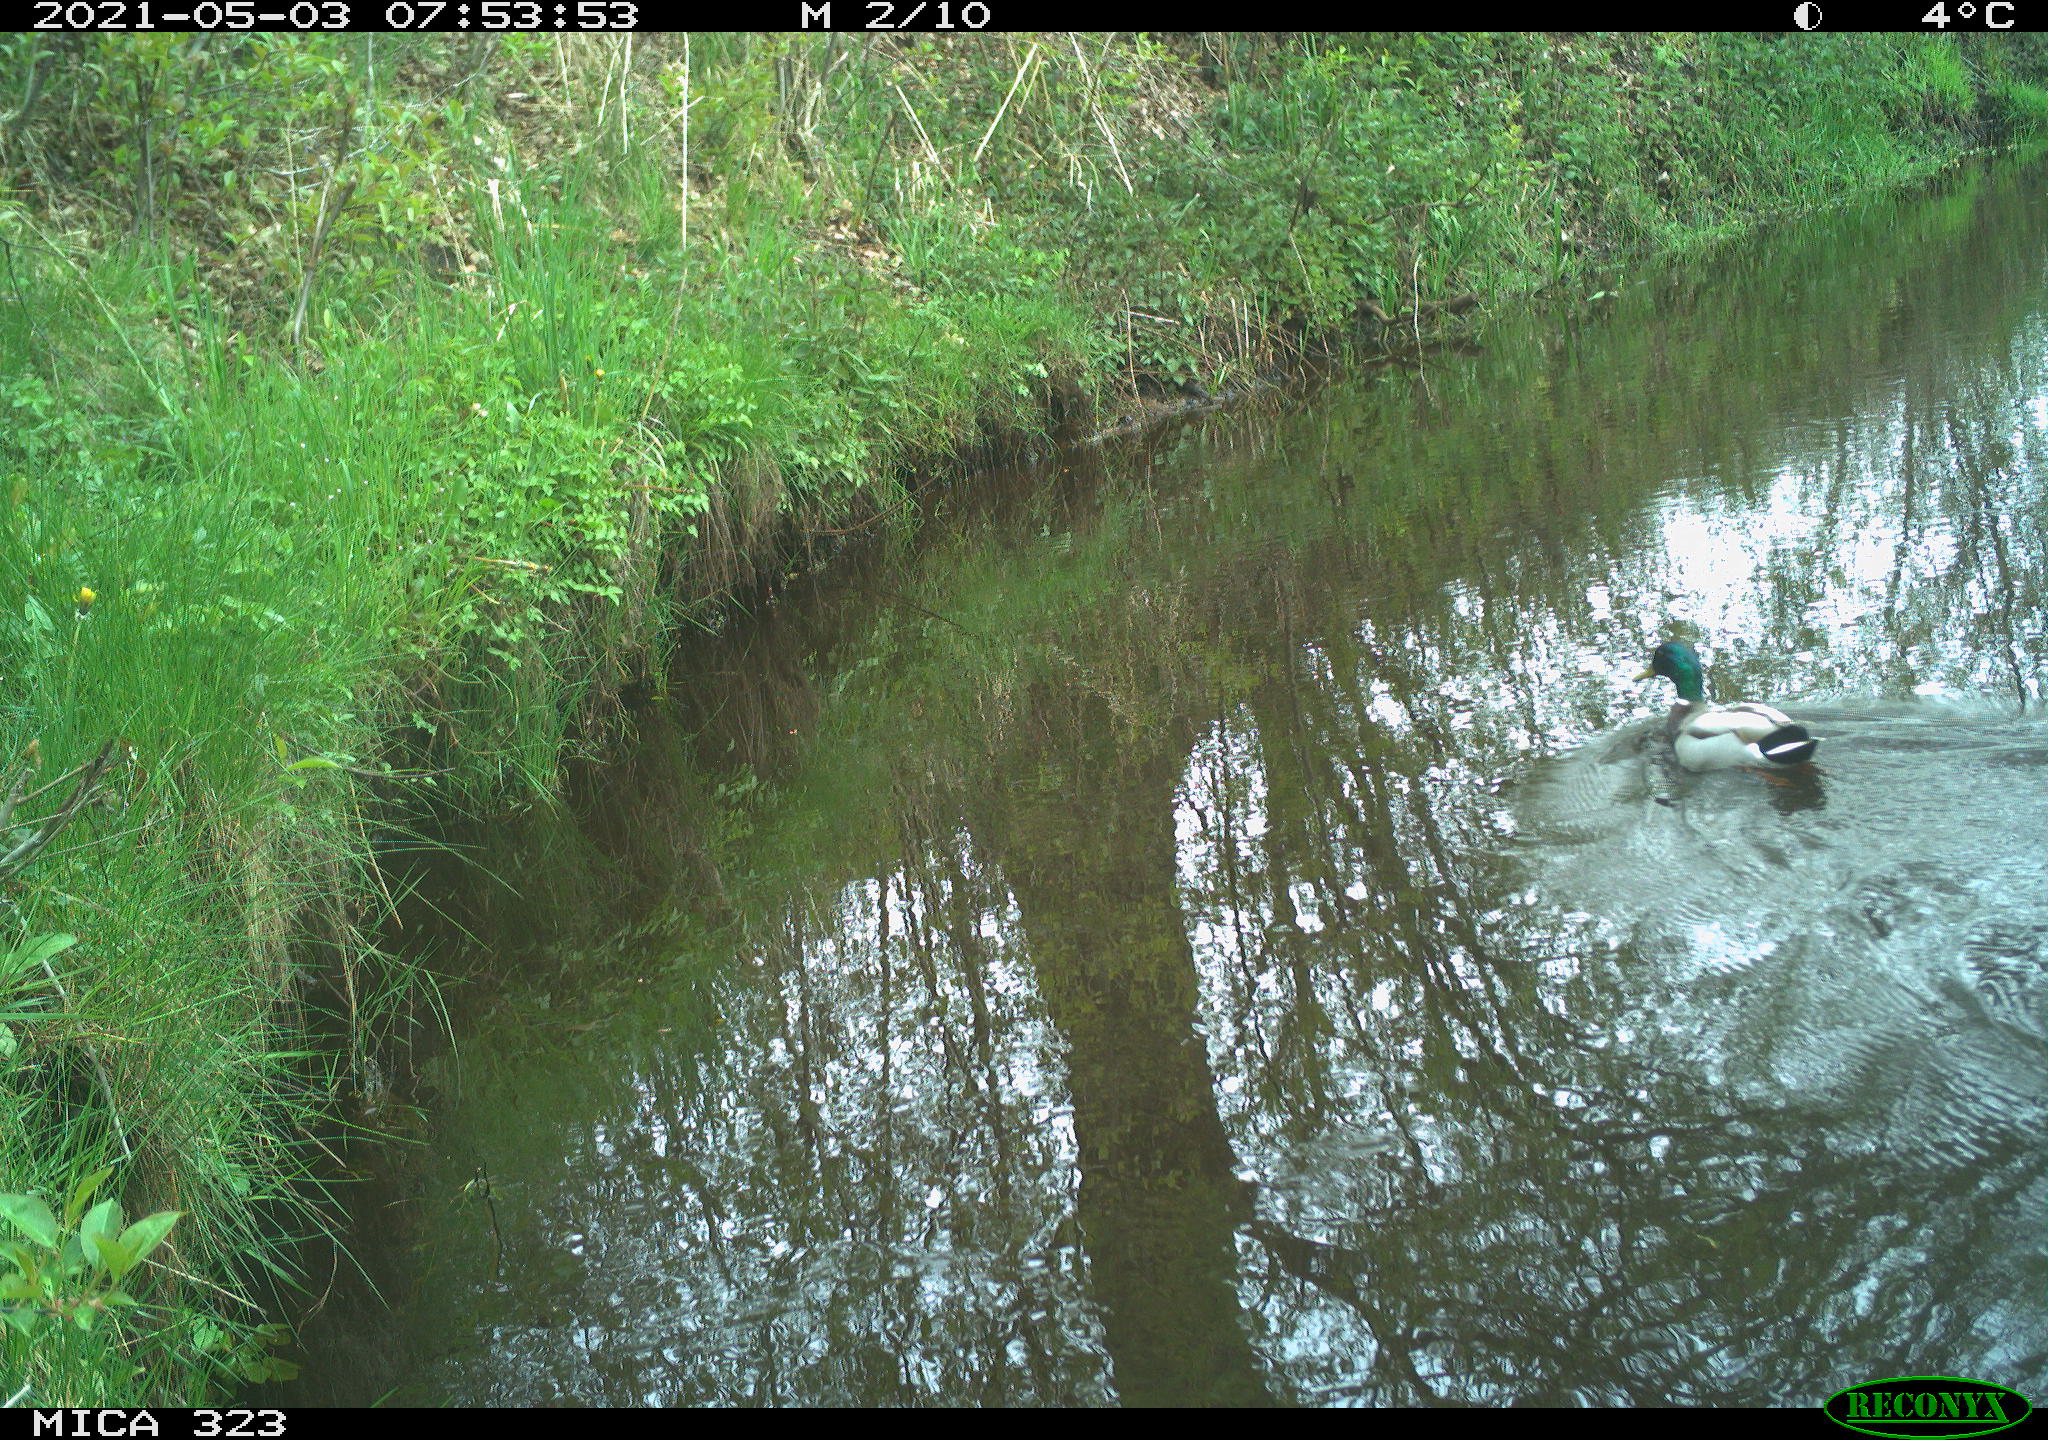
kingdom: Animalia
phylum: Chordata
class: Aves
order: Anseriformes
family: Anatidae
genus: Anas
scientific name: Anas platyrhynchos
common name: Mallard
